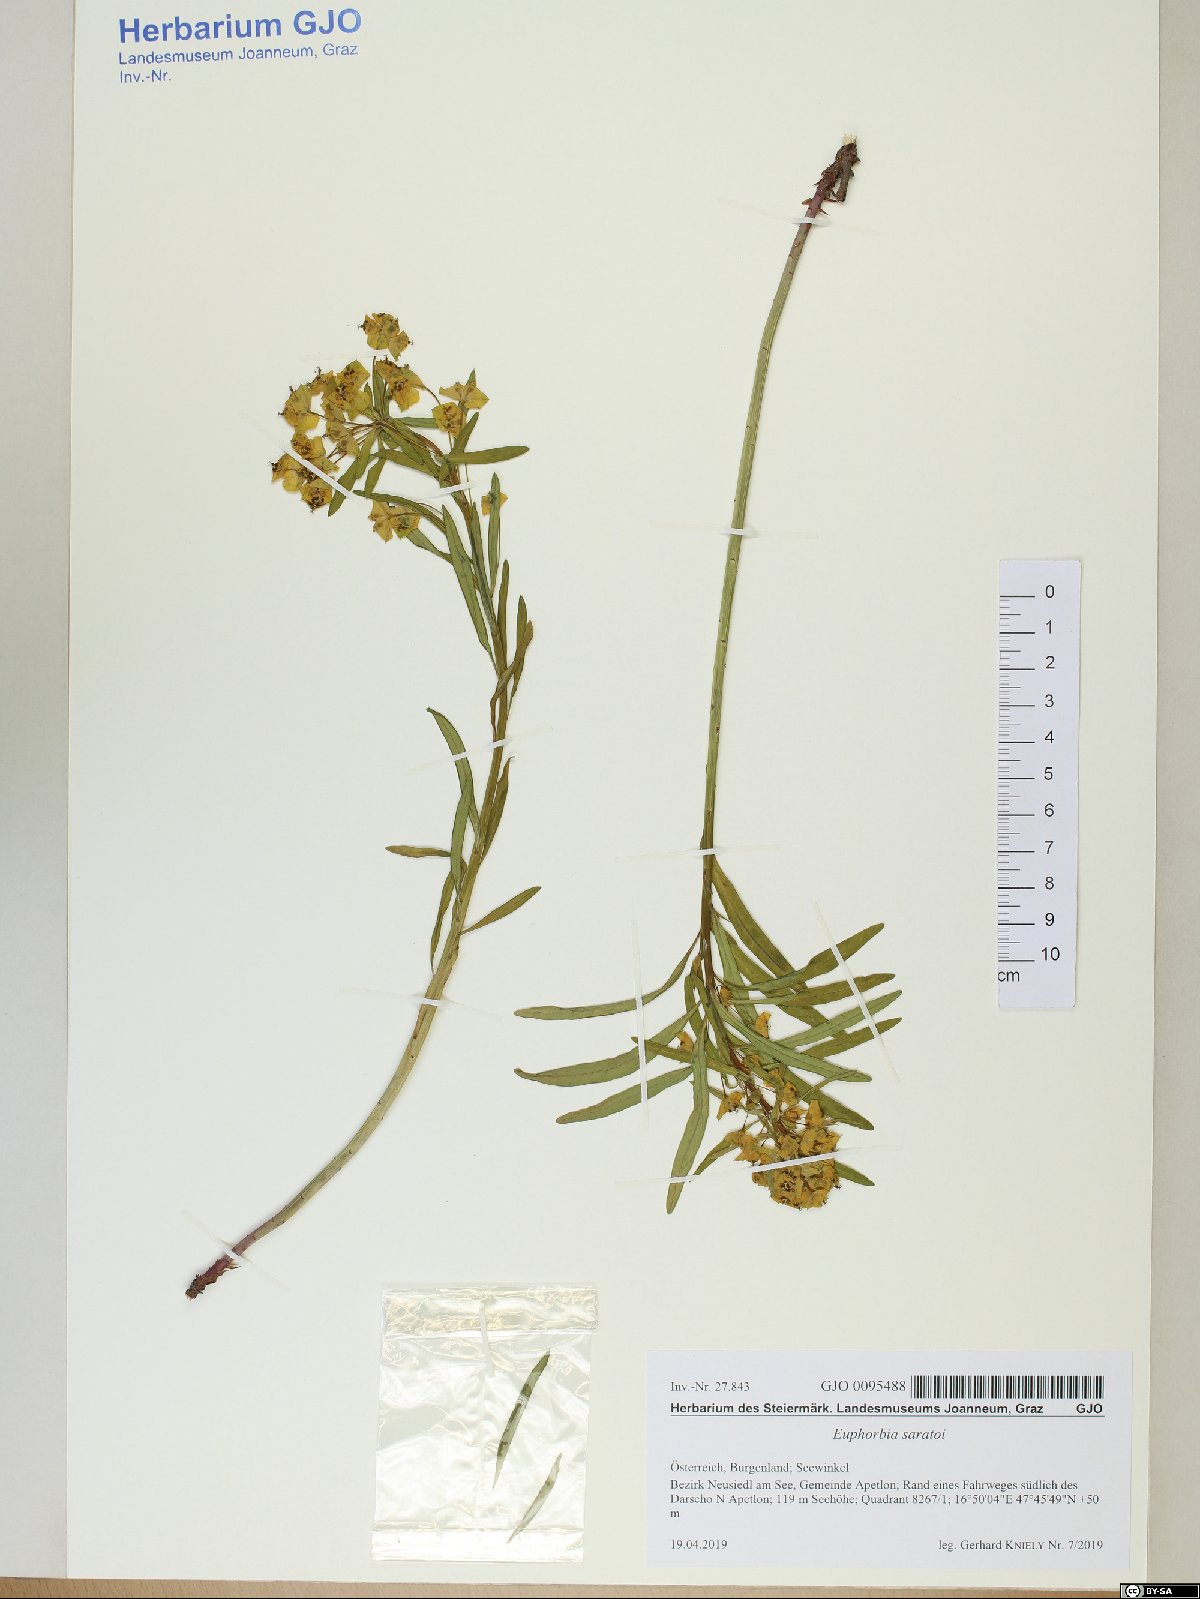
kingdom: Plantae
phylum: Tracheophyta
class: Magnoliopsida
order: Malpighiales
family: Euphorbiaceae
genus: Euphorbia
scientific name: Euphorbia saratoi
